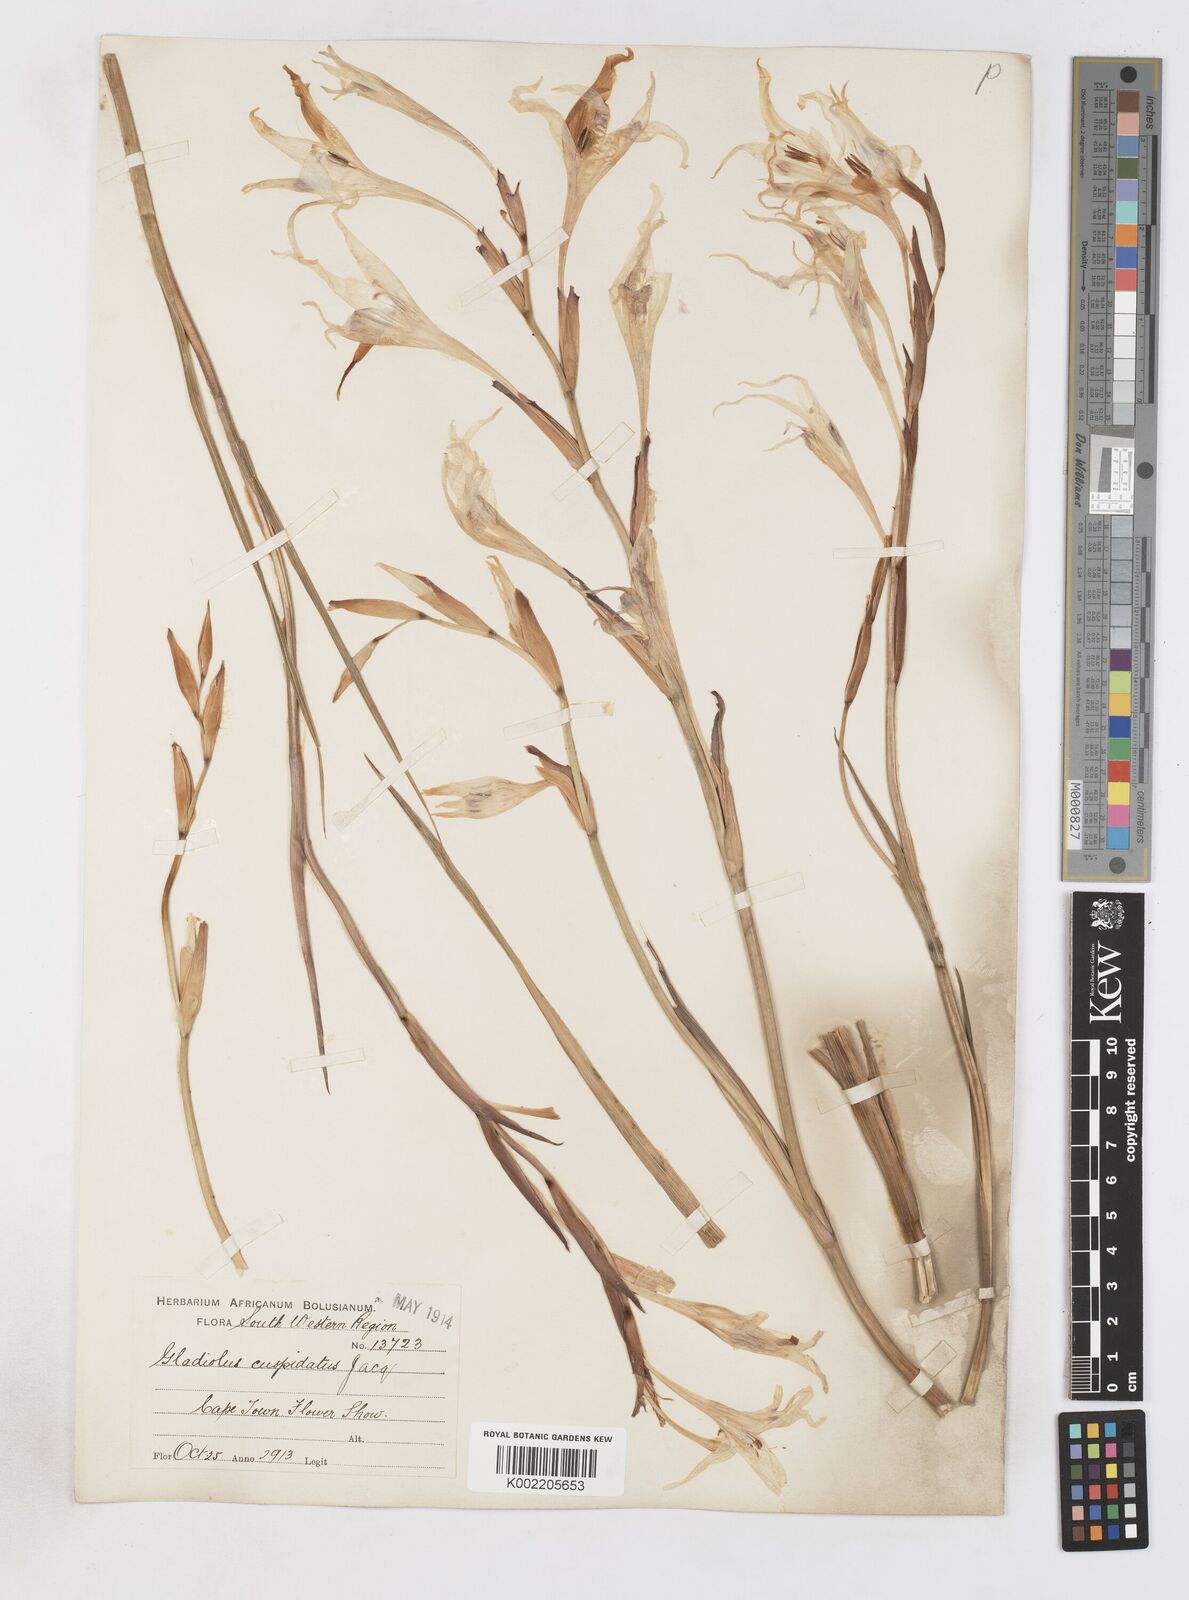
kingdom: Plantae
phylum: Tracheophyta
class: Liliopsida
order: Asparagales
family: Iridaceae
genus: Gladiolus
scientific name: Gladiolus undulatus
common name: Large painted-lady
